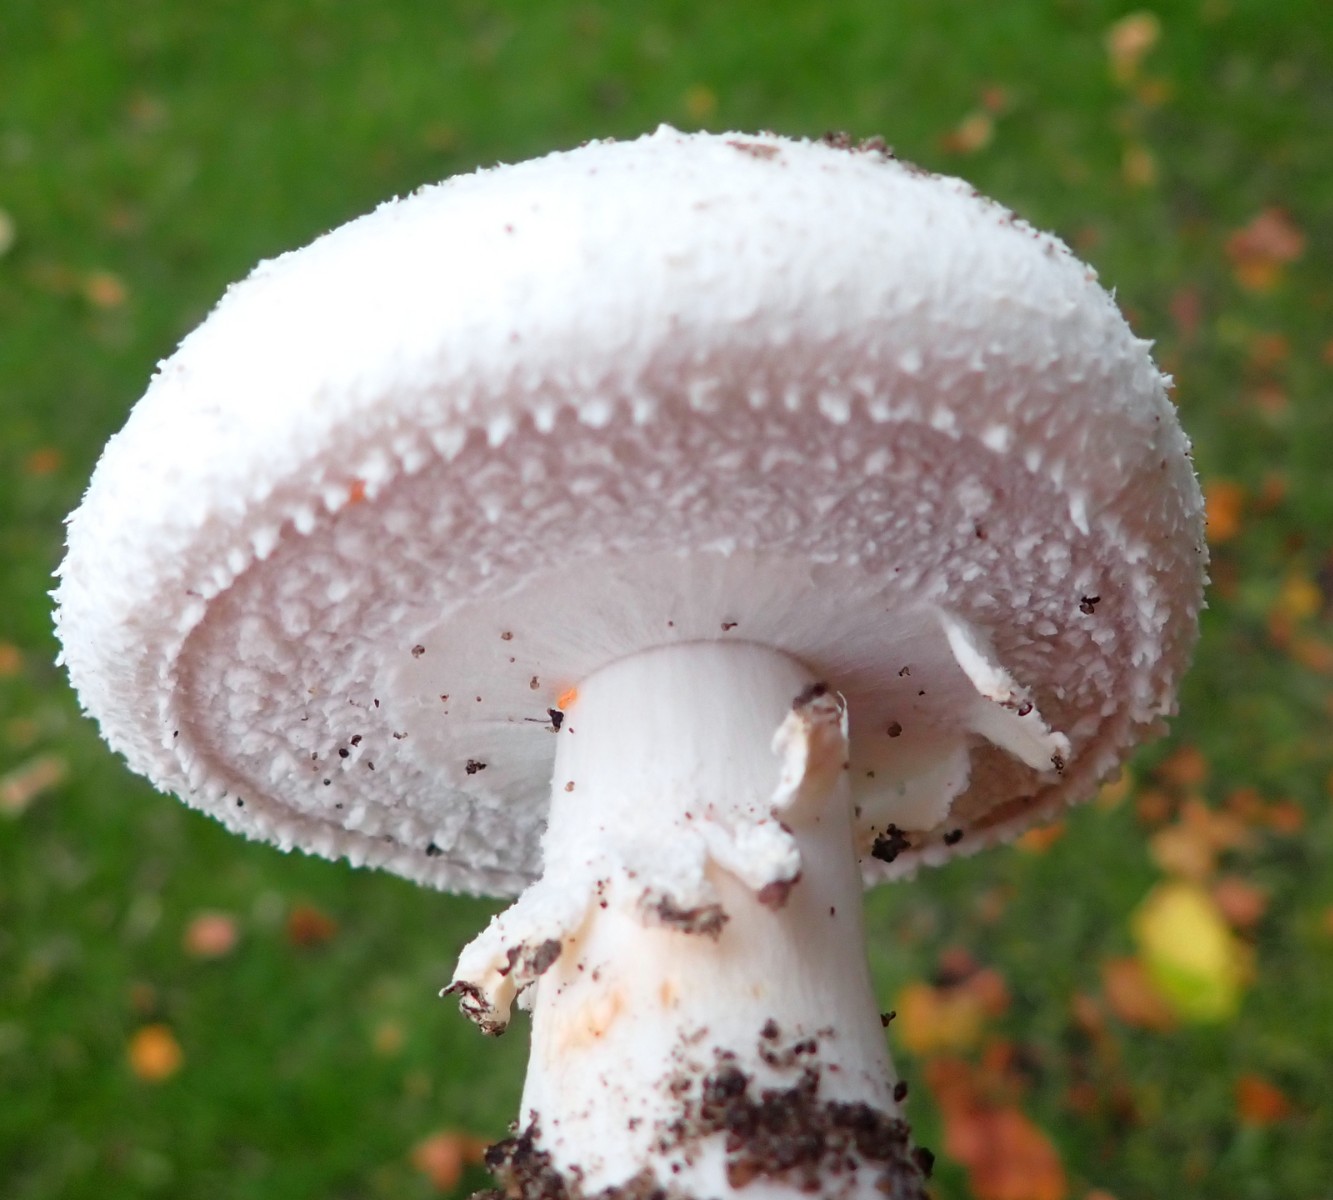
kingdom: Fungi
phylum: Basidiomycota
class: Agaricomycetes
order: Agaricales
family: Agaricaceae
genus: Agaricus
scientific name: Agaricus bernardii
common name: strandengs-champignon
